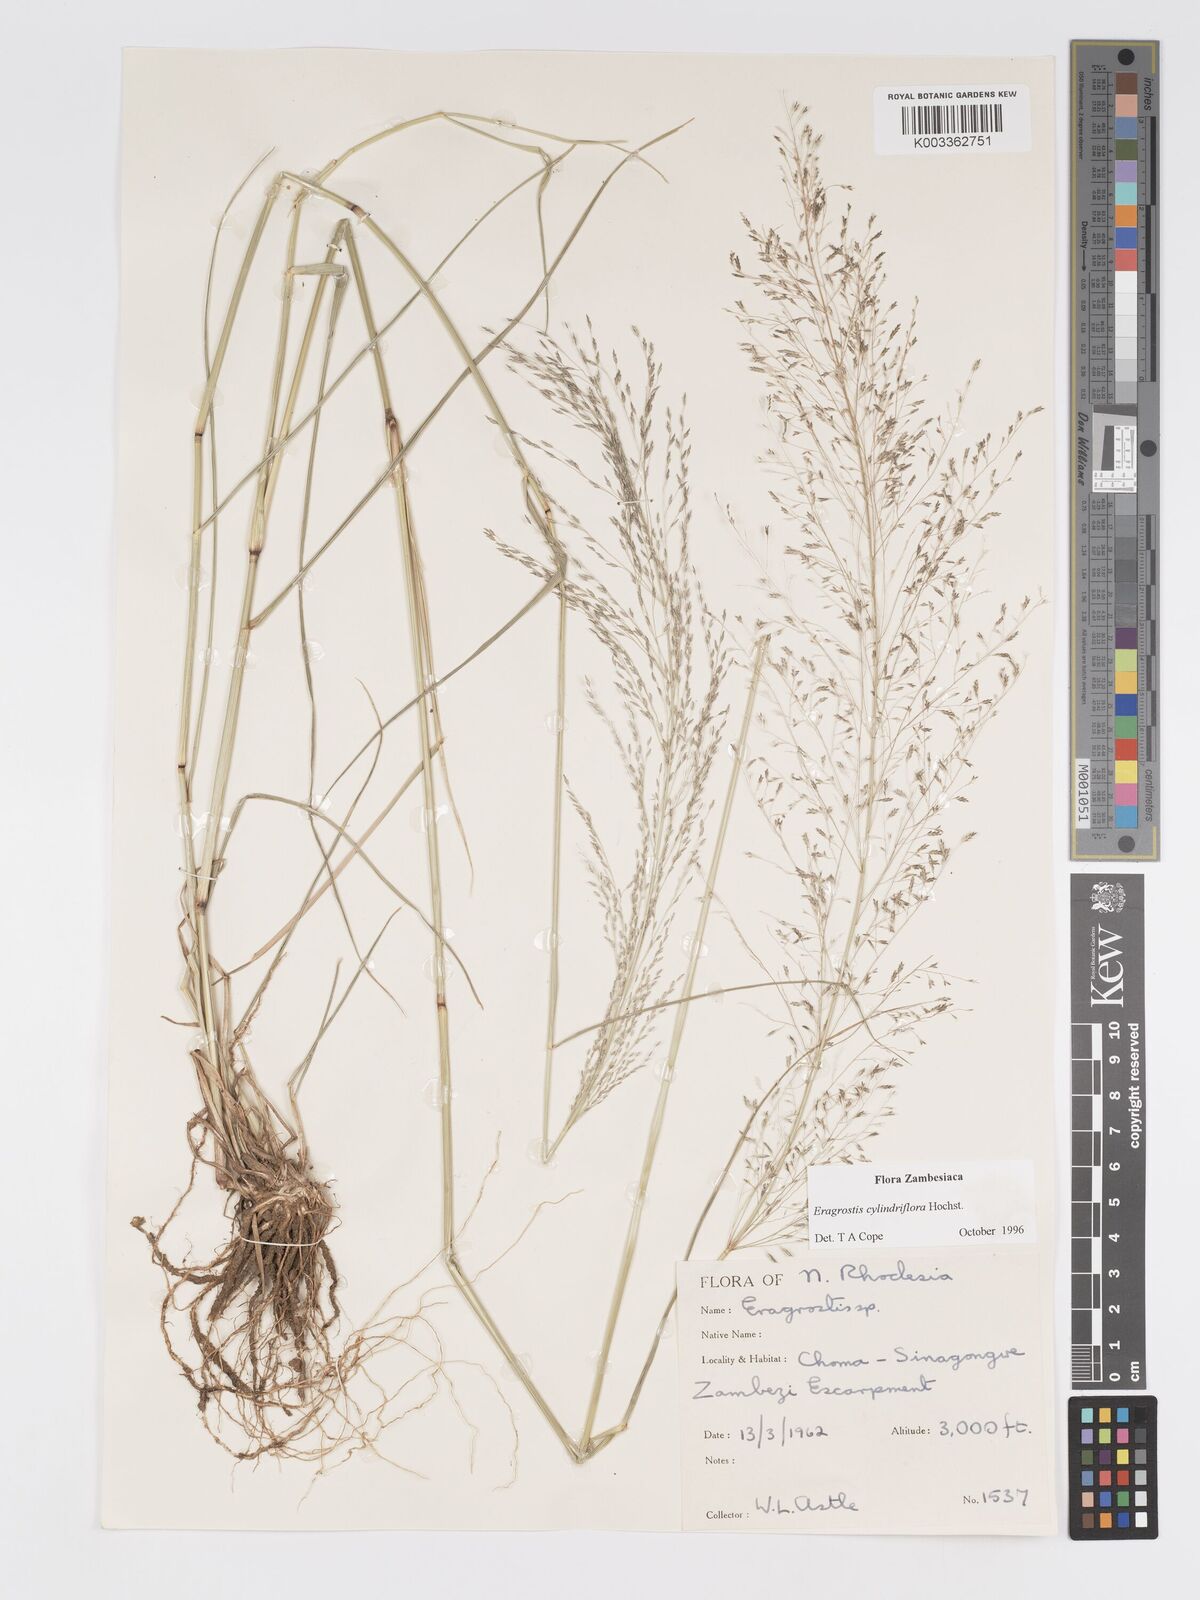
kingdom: Plantae
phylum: Tracheophyta
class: Liliopsida
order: Poales
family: Poaceae
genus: Eragrostis
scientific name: Eragrostis cylindriflora
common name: Cylinderflower lovegrass
